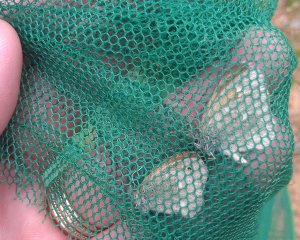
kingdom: Animalia
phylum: Arthropoda
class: Insecta
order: Lepidoptera
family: Nymphalidae
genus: Coenonympha
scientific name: Coenonympha tullia
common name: Large Heath
